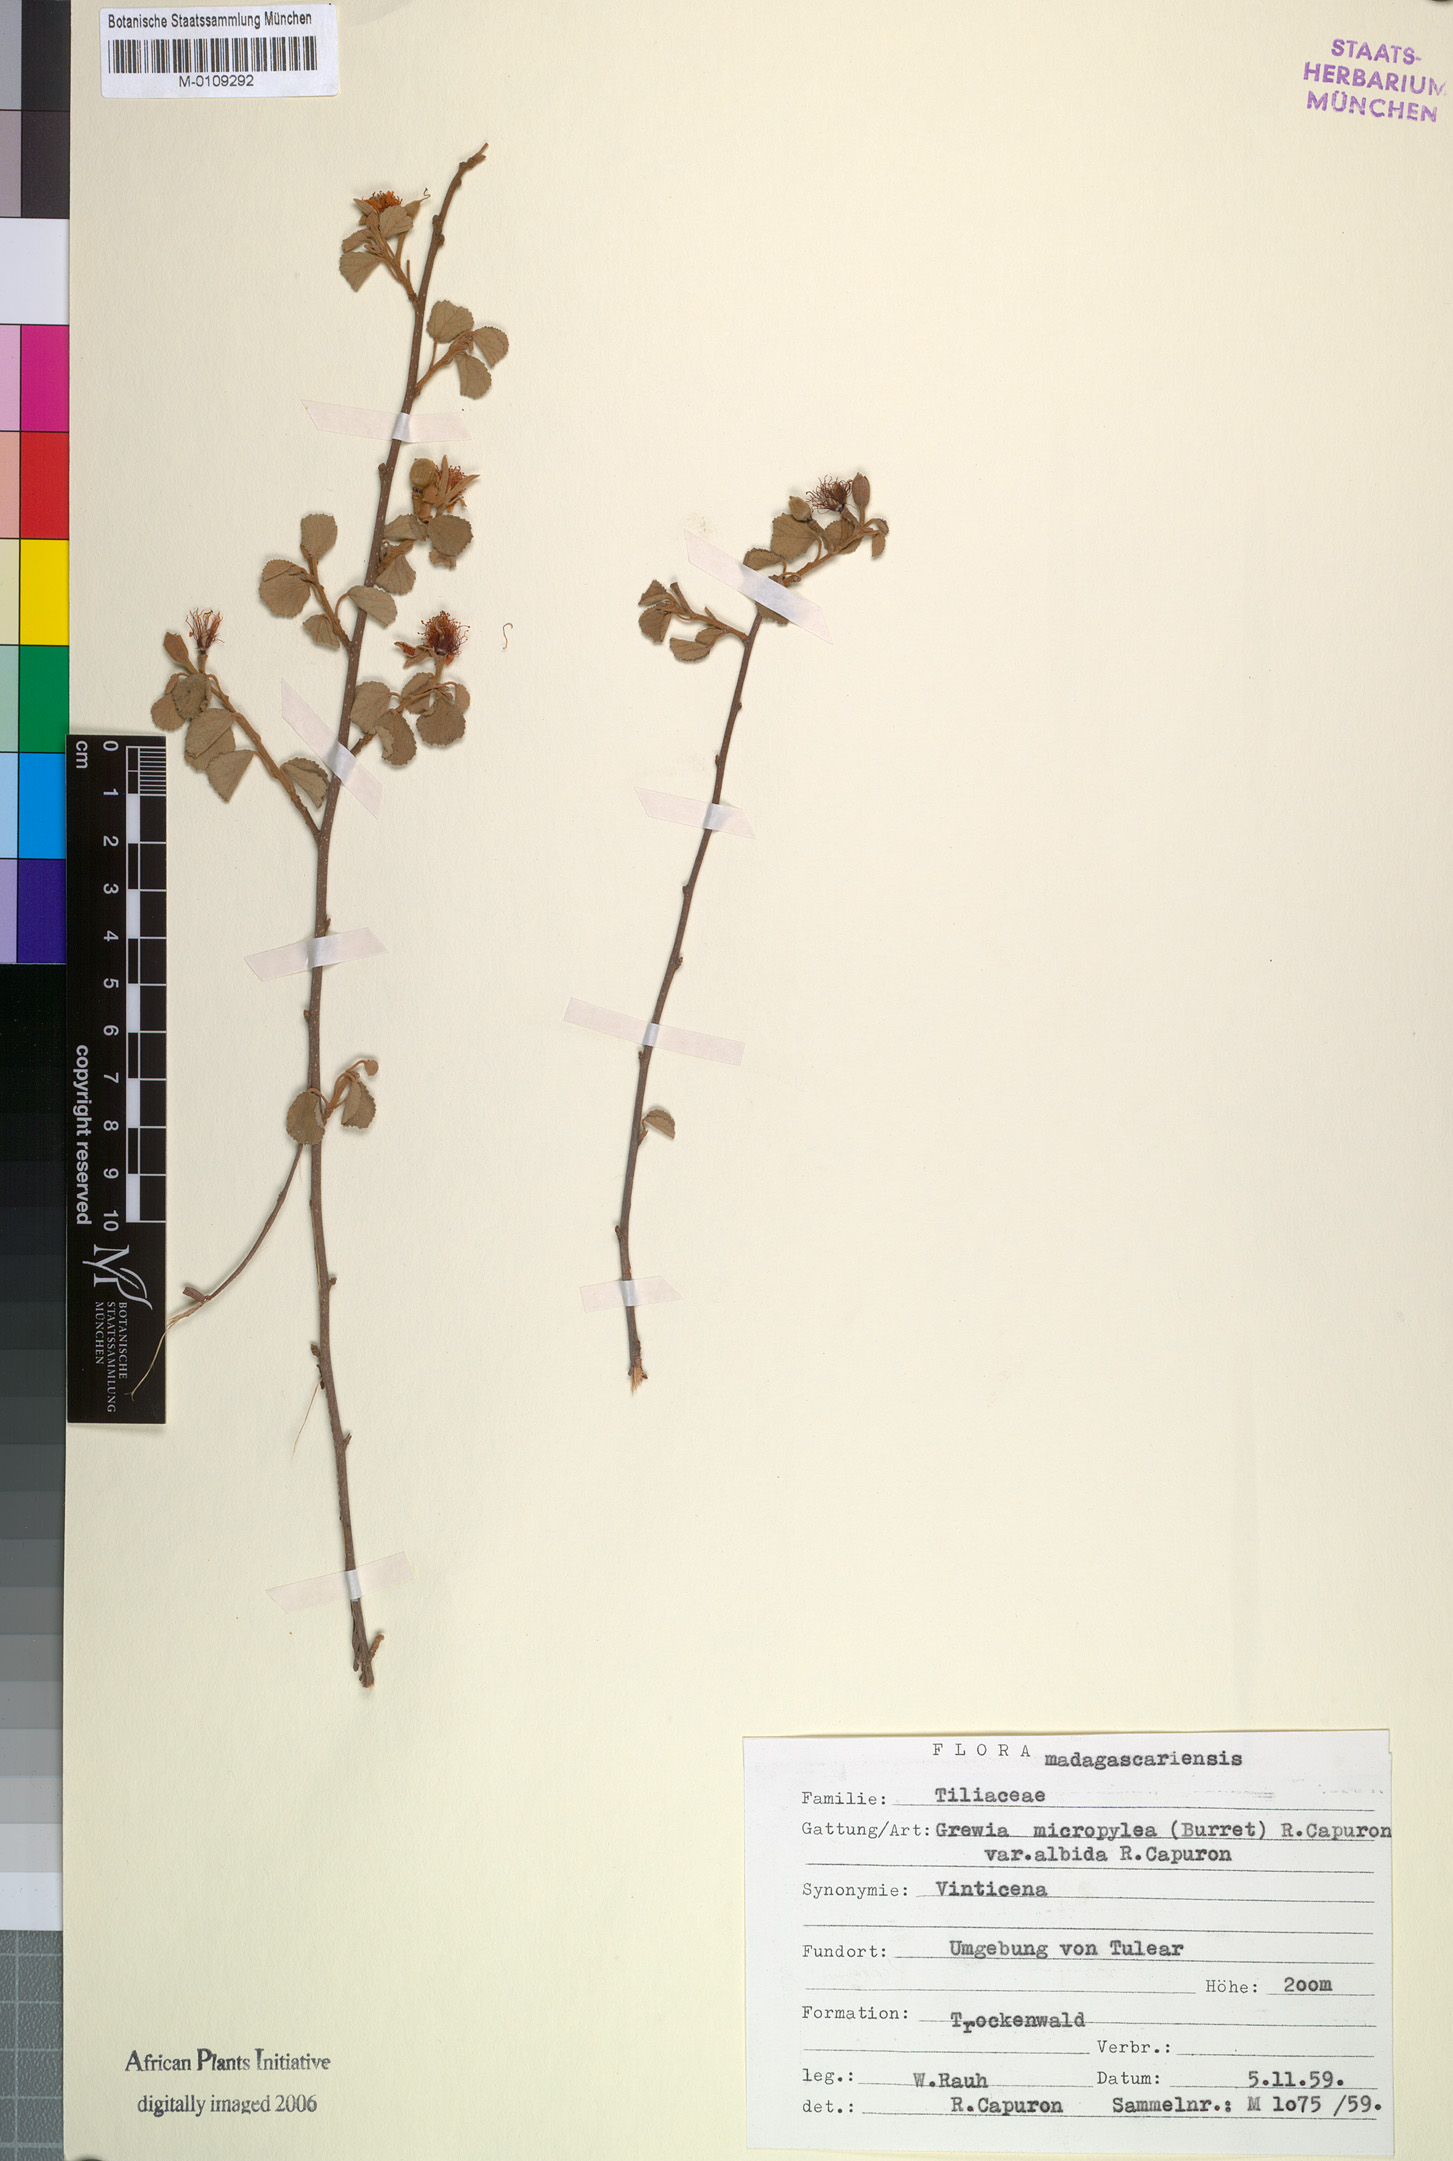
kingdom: Plantae
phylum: Tracheophyta
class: Magnoliopsida
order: Malvales
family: Malvaceae
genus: Grewia
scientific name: Grewia microcyclea
